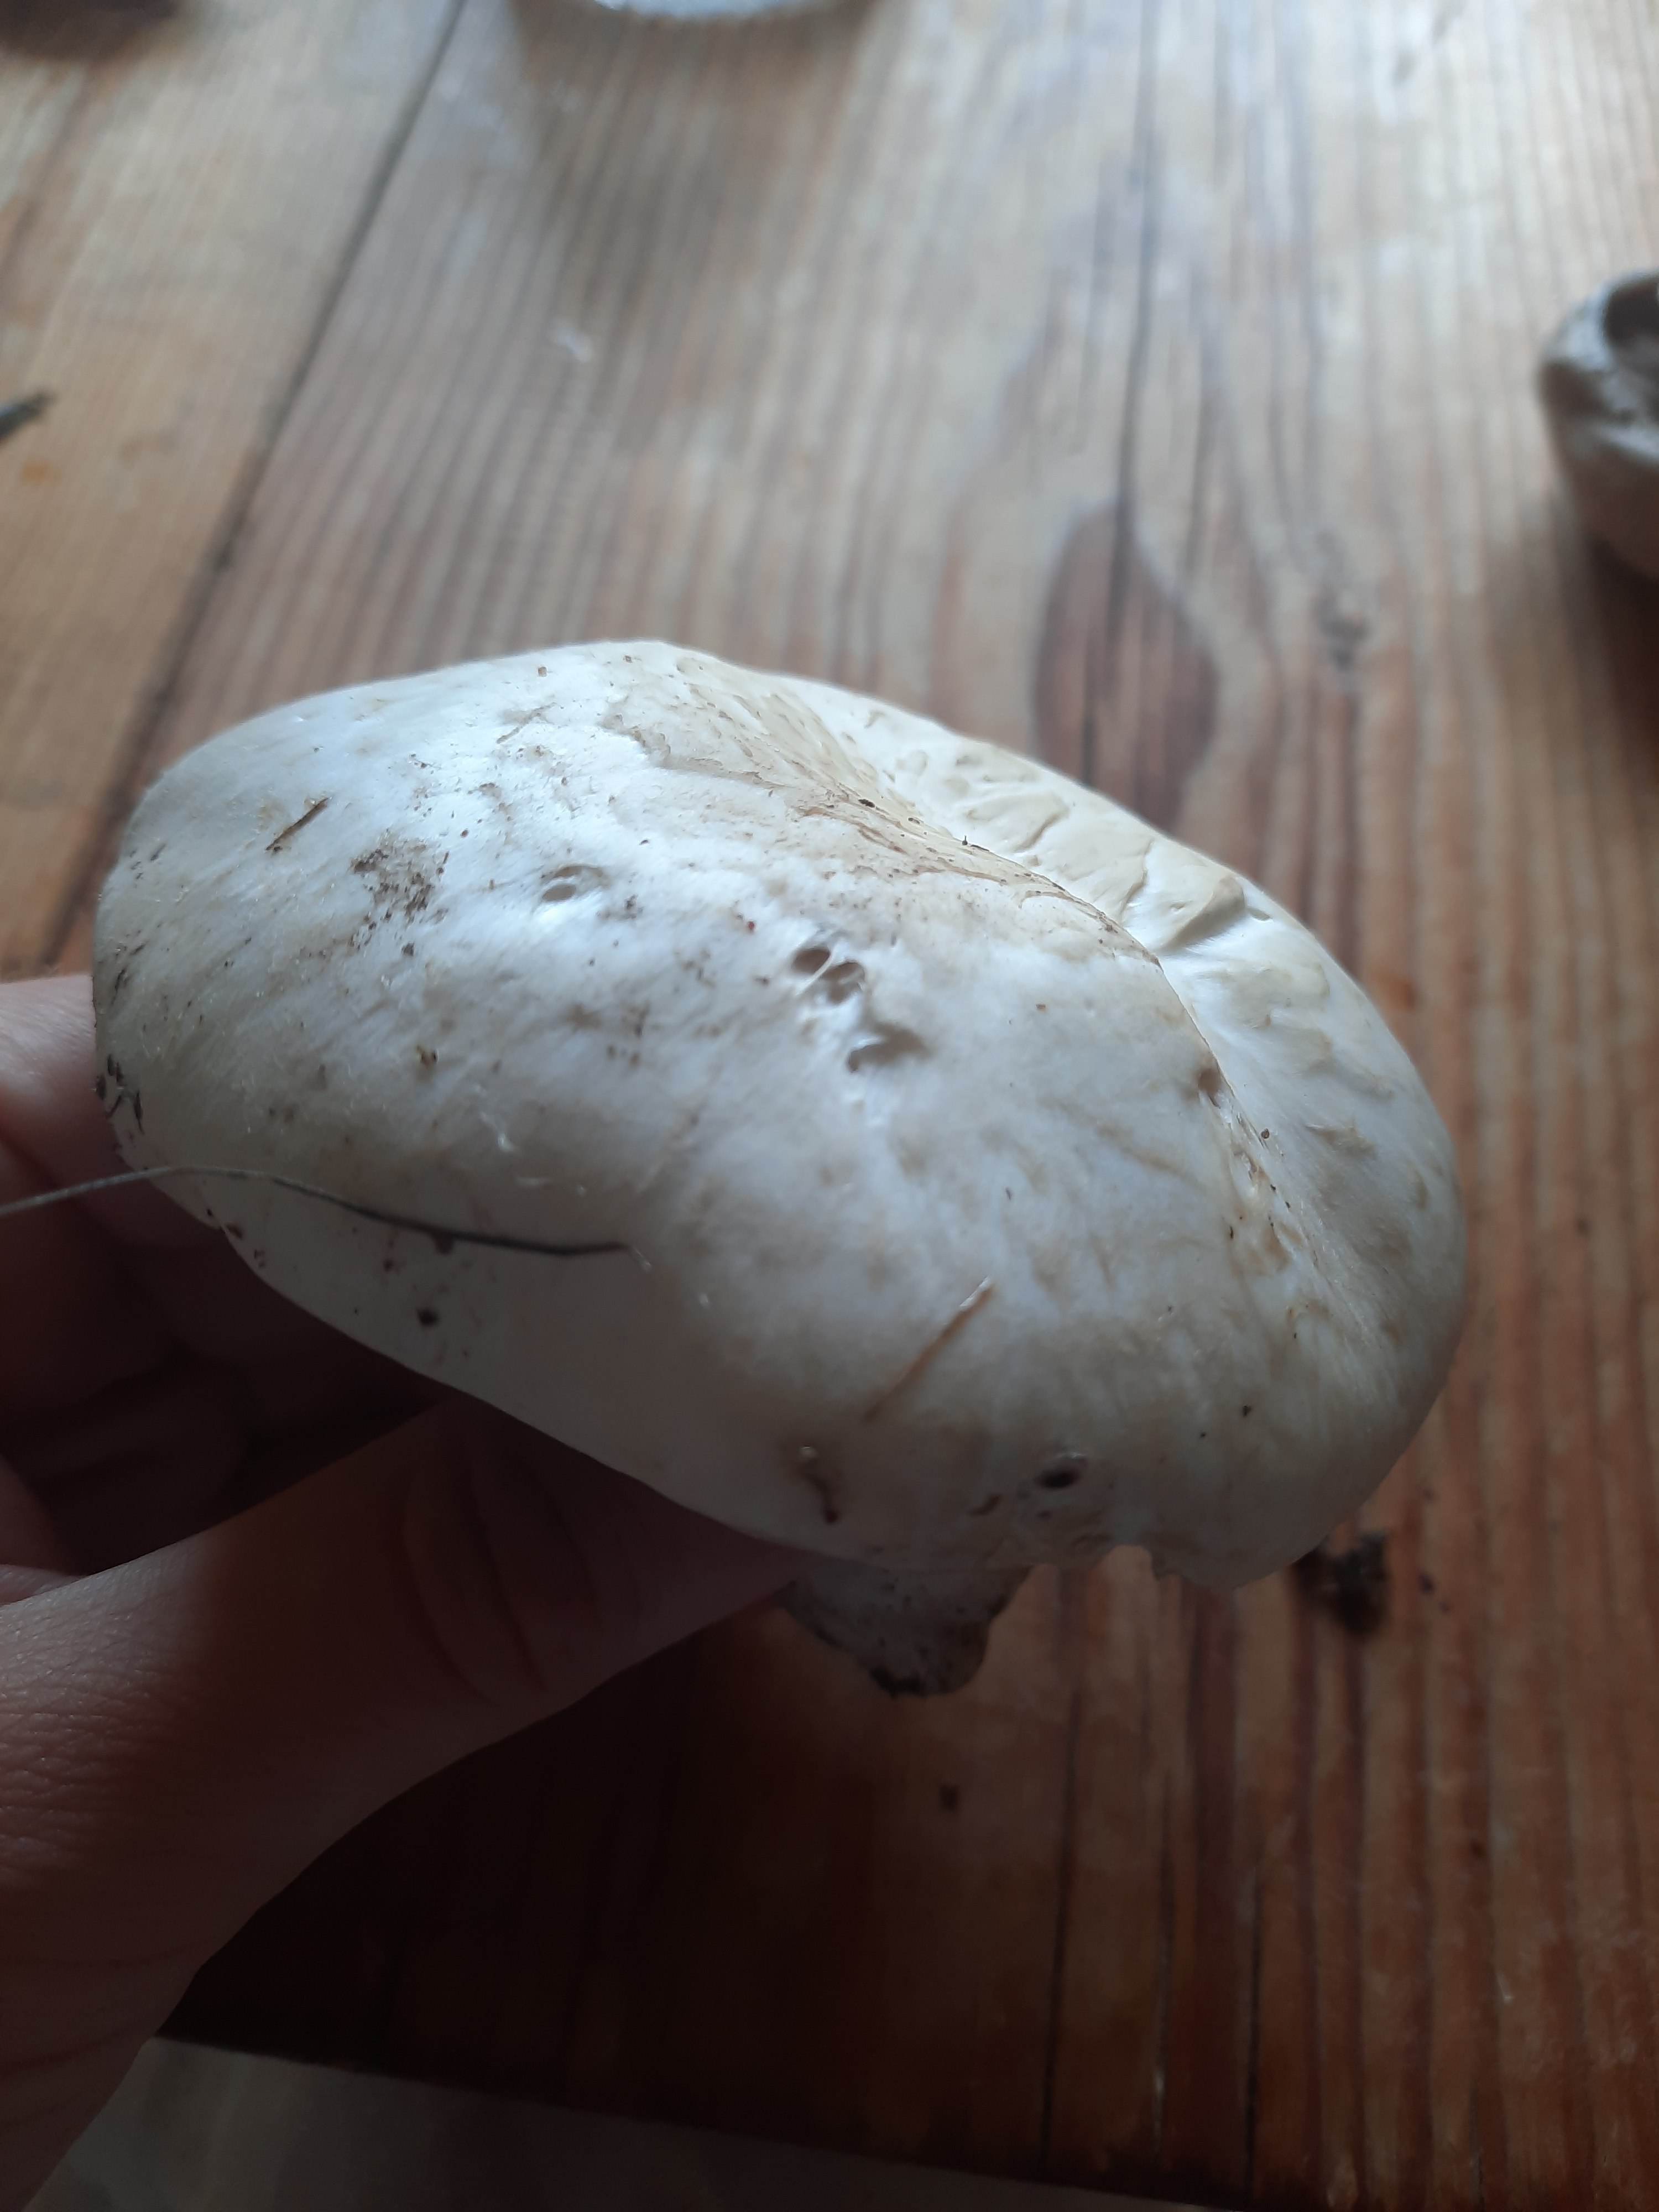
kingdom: Fungi
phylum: Basidiomycota
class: Agaricomycetes
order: Agaricales
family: Agaricaceae
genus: Agaricus
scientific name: Agaricus
